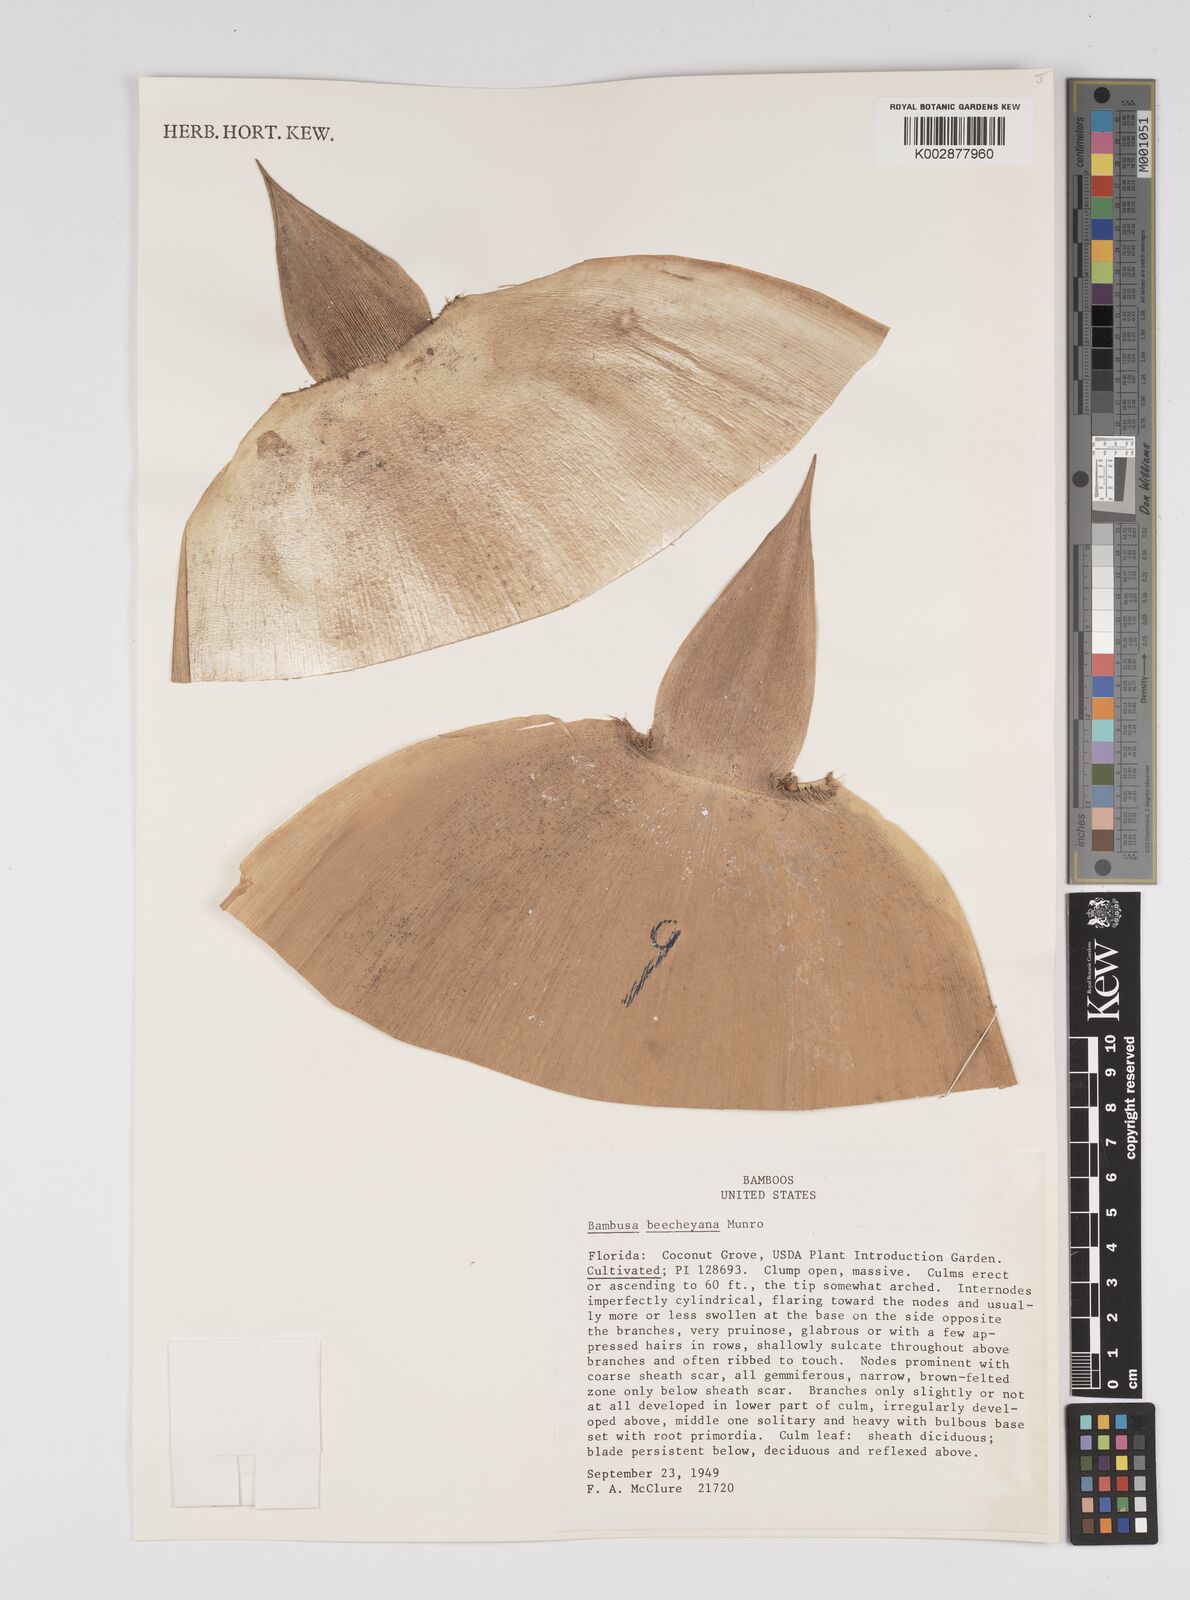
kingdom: Plantae
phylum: Tracheophyta
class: Liliopsida
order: Poales
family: Poaceae
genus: Bambusa
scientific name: Bambusa beecheyana
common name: Beechey's bamboo
